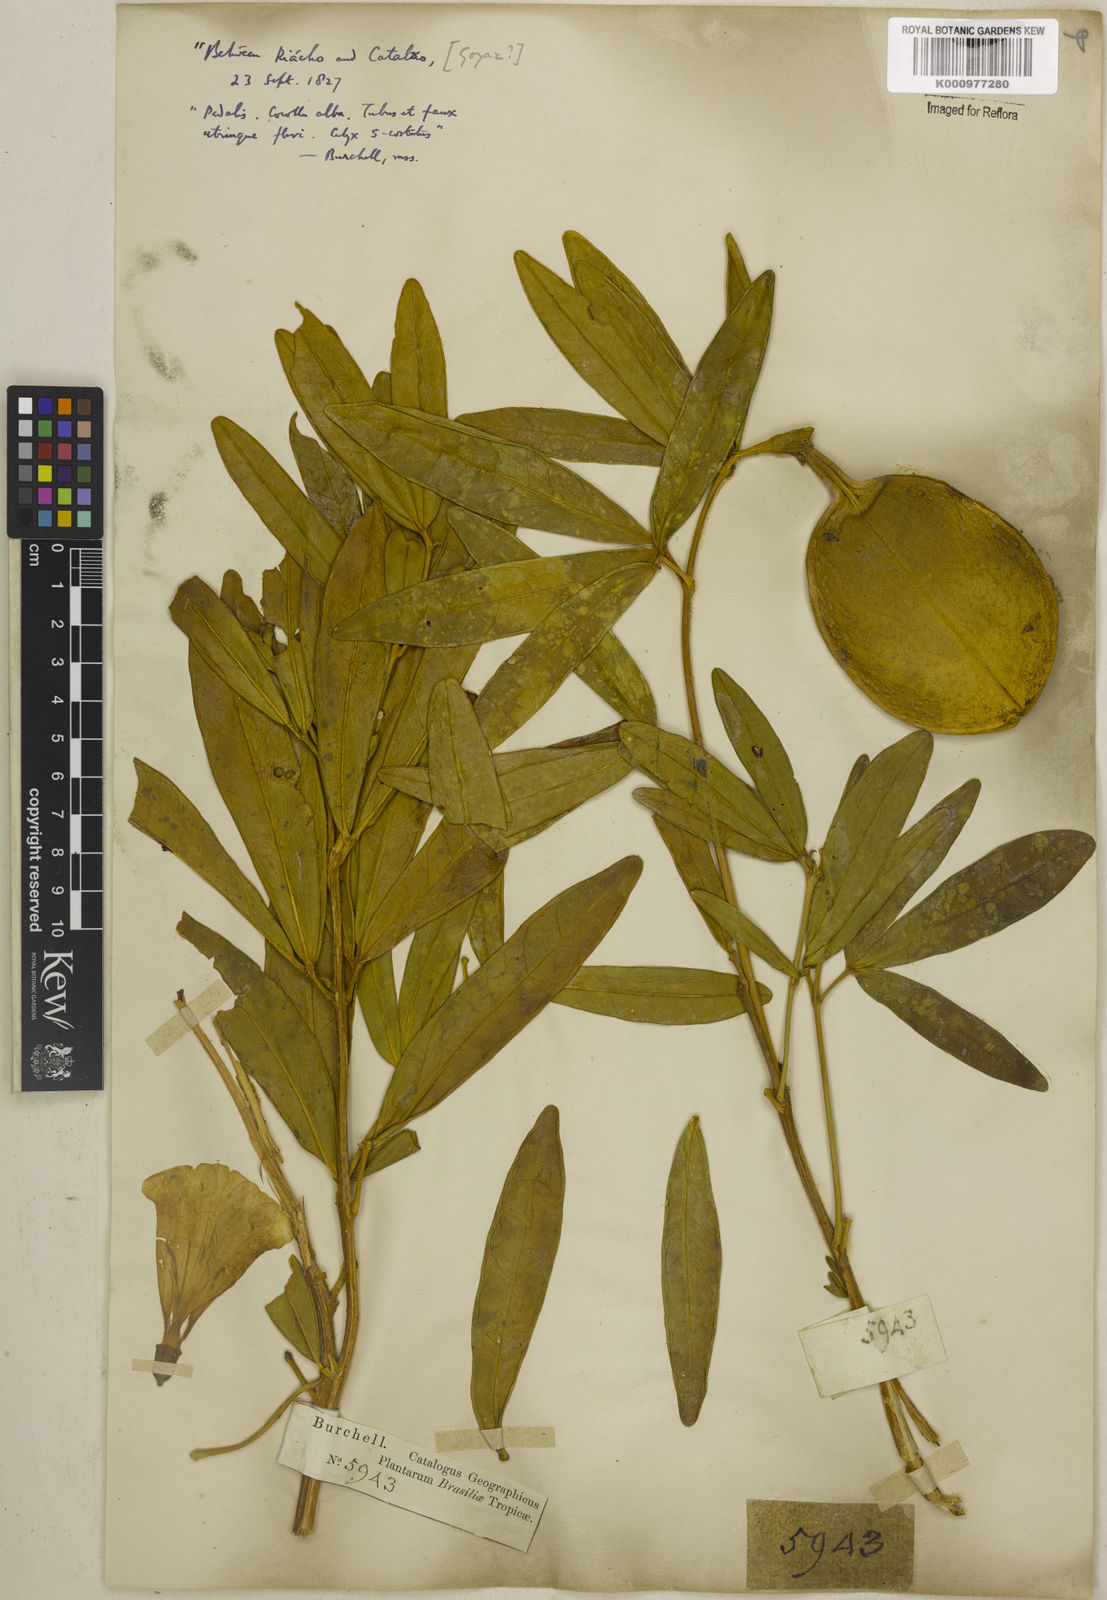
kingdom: Plantae
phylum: Tracheophyta
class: Magnoliopsida
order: Lamiales
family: Bignoniaceae
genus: Anemopaegma
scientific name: Anemopaegma glaucum
